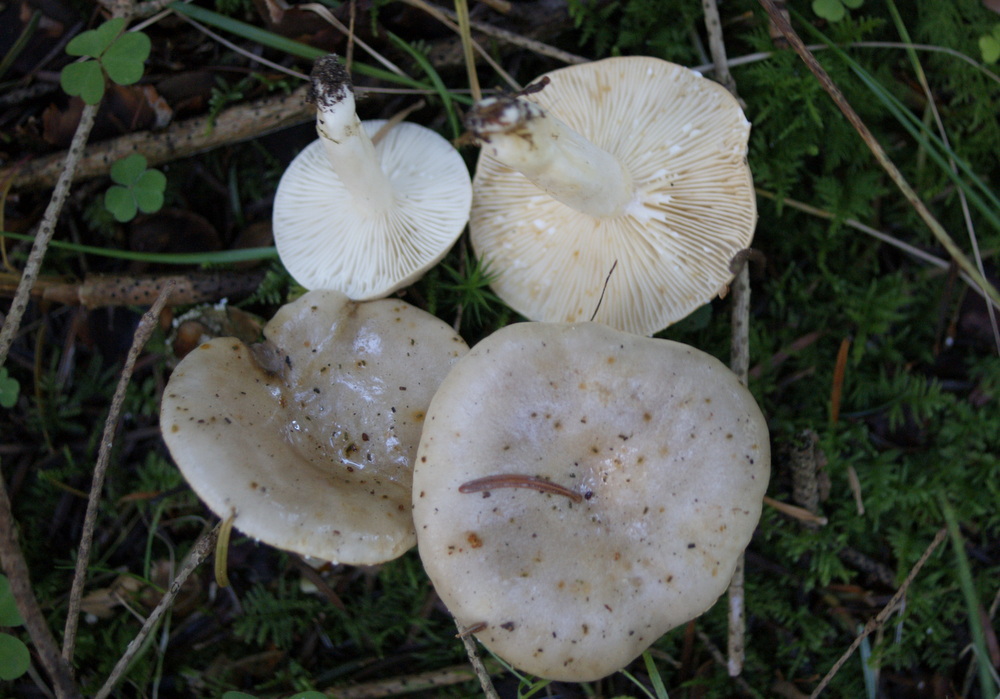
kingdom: Fungi
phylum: Basidiomycota
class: Agaricomycetes
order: Russulales
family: Russulaceae
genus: Lactarius
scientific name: Lactarius albocarneus
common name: ædelgran-mælkehat
